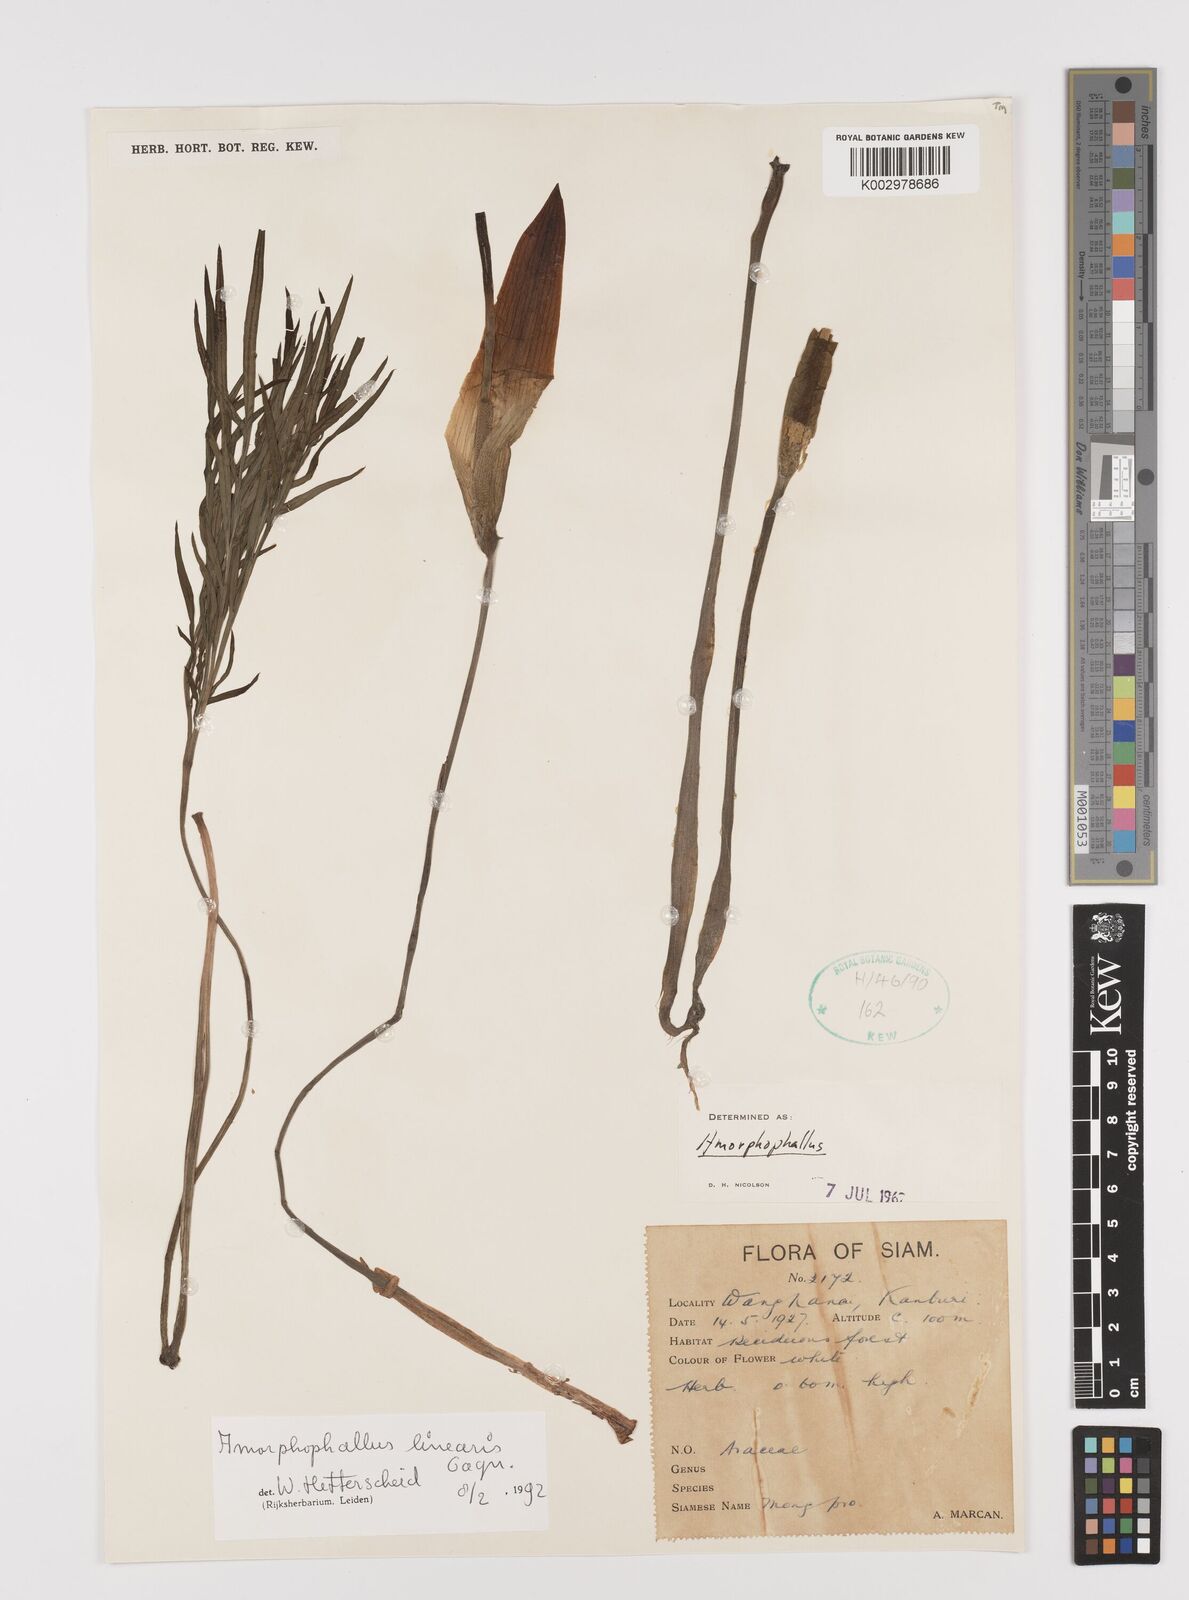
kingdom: Plantae
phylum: Tracheophyta
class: Liliopsida
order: Alismatales
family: Araceae
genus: Amorphophallus
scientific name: Amorphophallus linearis
